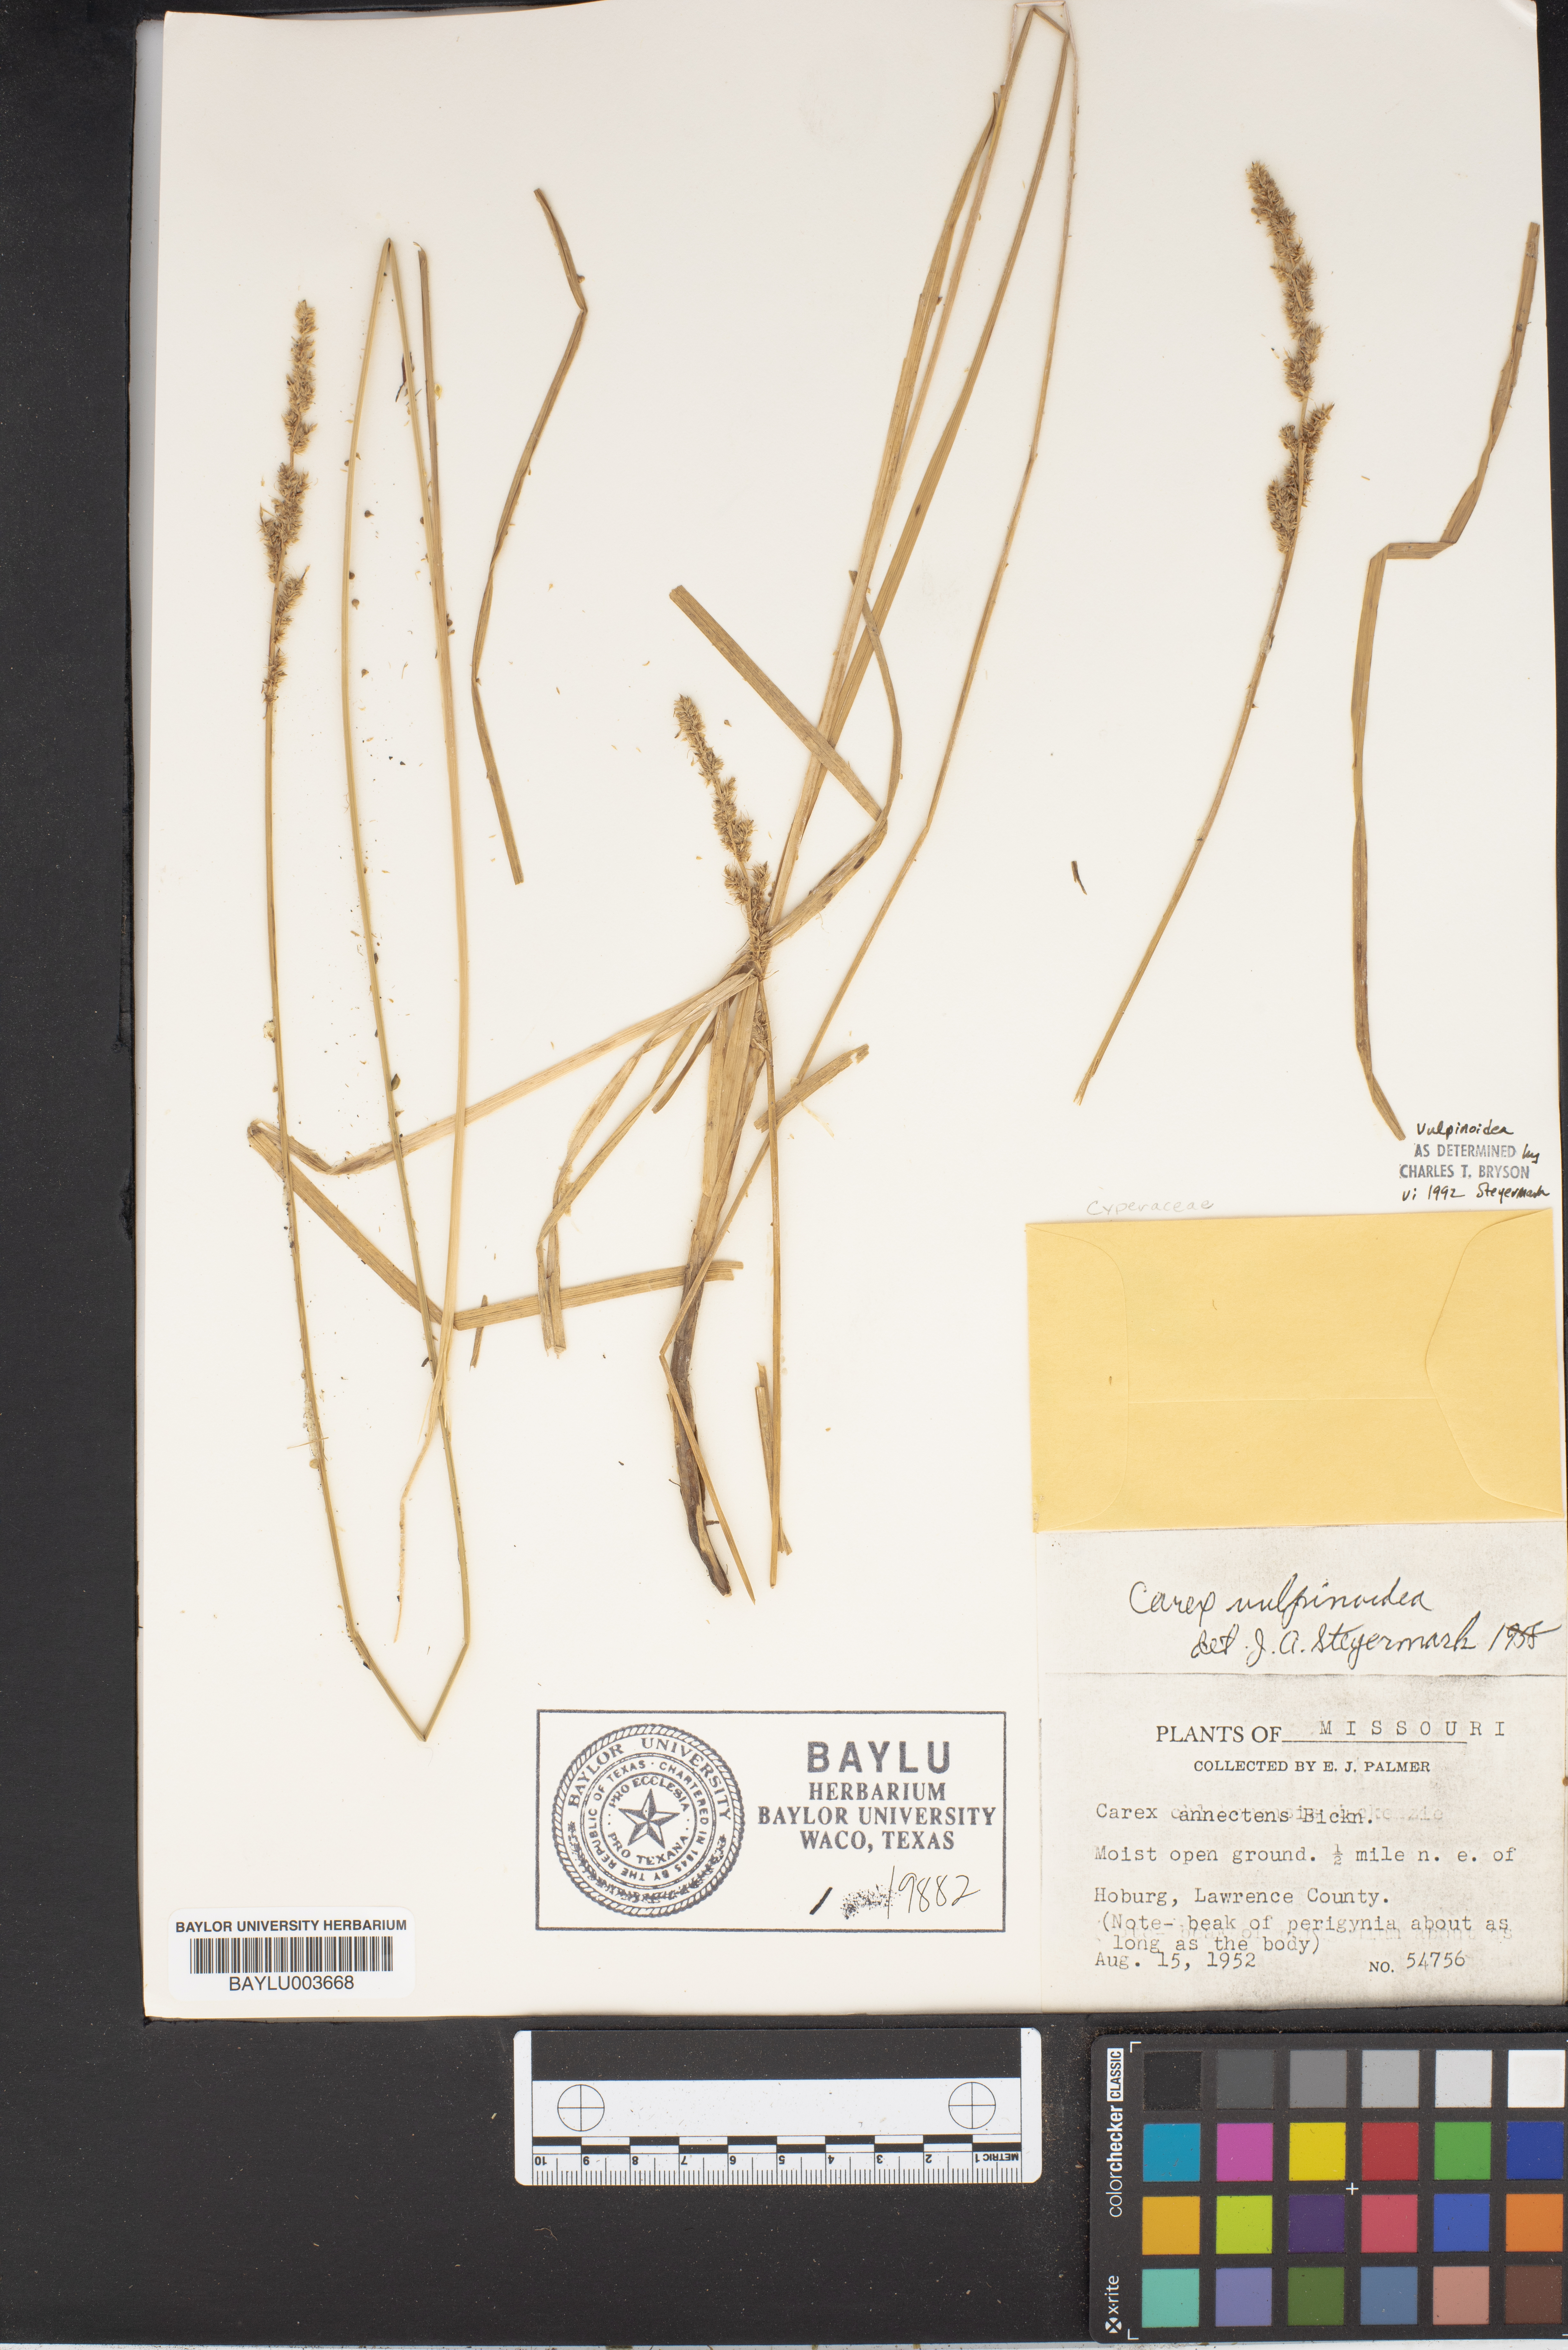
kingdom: Plantae
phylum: Tracheophyta
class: Liliopsida
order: Poales
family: Cyperaceae
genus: Carex
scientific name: Carex annectens
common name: Large fox sedge
